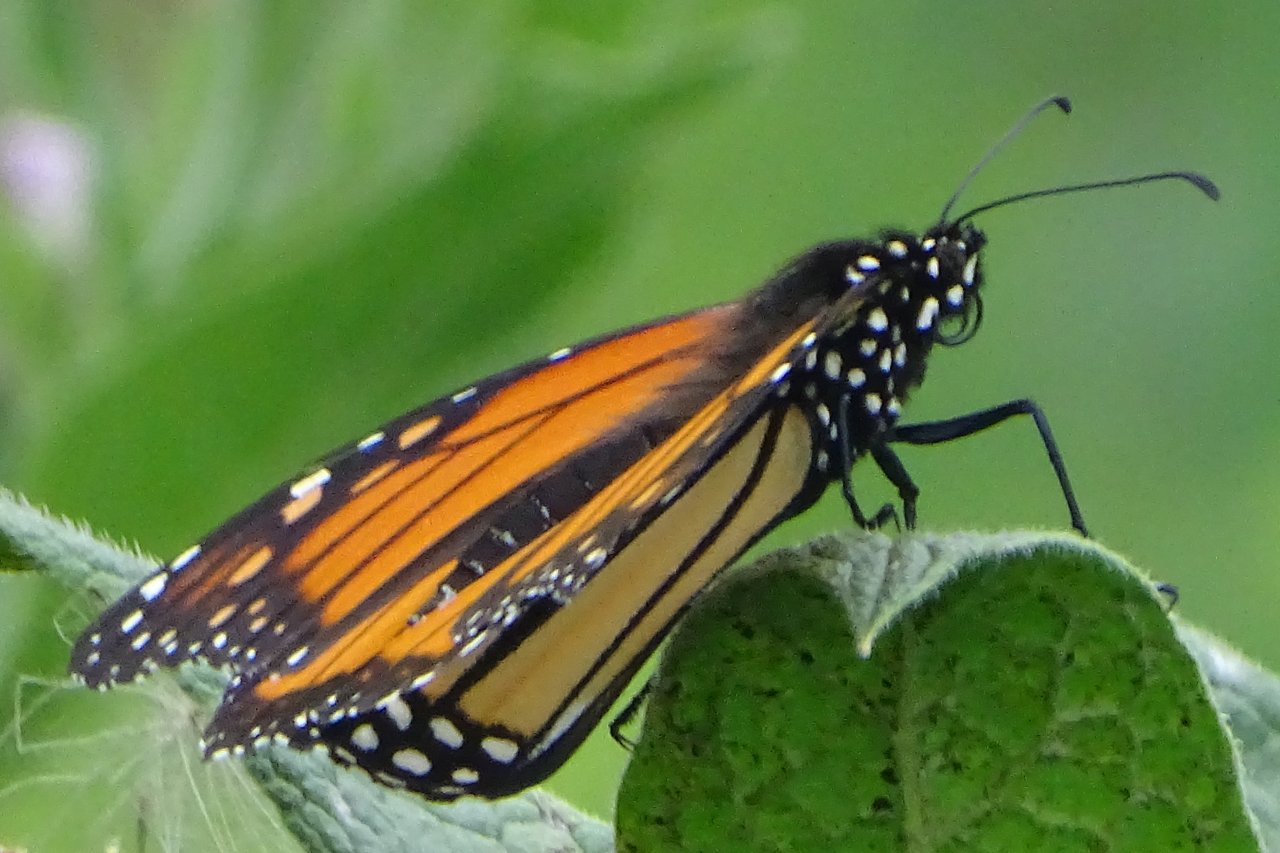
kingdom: Animalia
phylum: Arthropoda
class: Insecta
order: Lepidoptera
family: Nymphalidae
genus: Danaus
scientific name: Danaus plexippus
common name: Monarch
